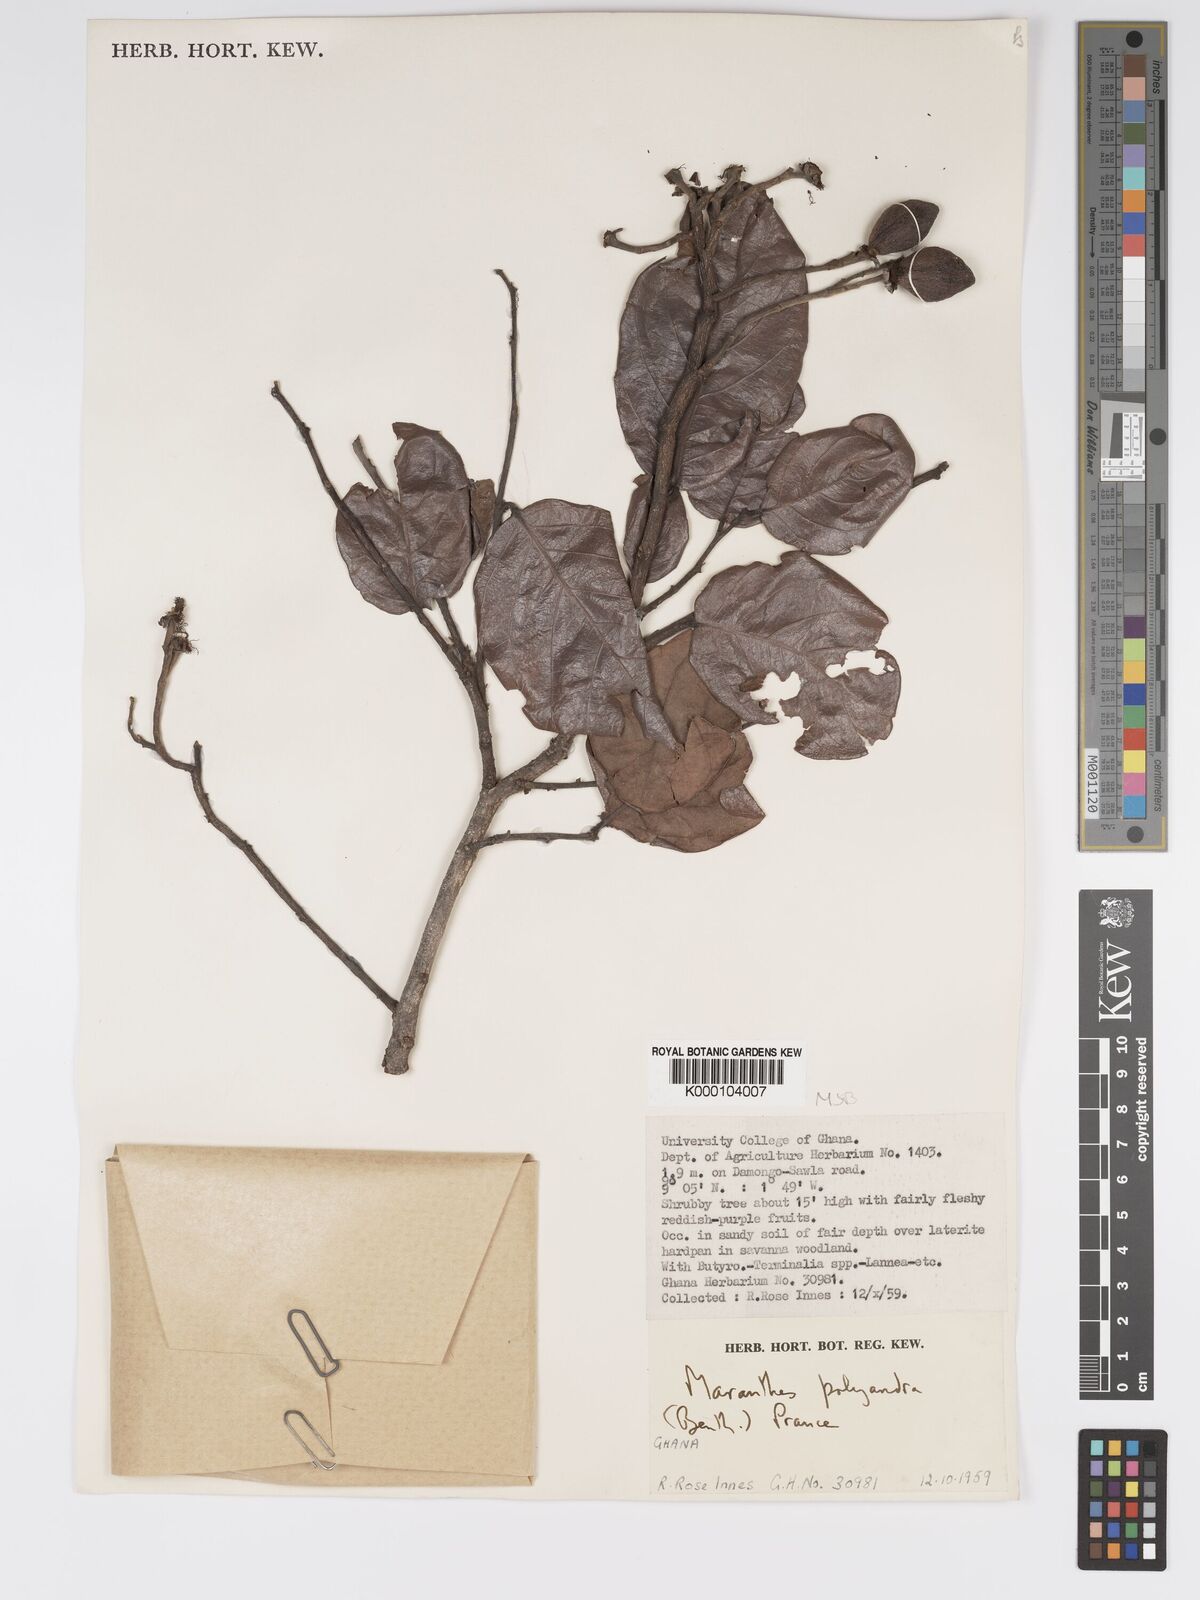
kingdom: Plantae
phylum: Tracheophyta
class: Magnoliopsida
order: Malpighiales
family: Chrysobalanaceae
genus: Maranthes
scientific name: Maranthes polyandra
